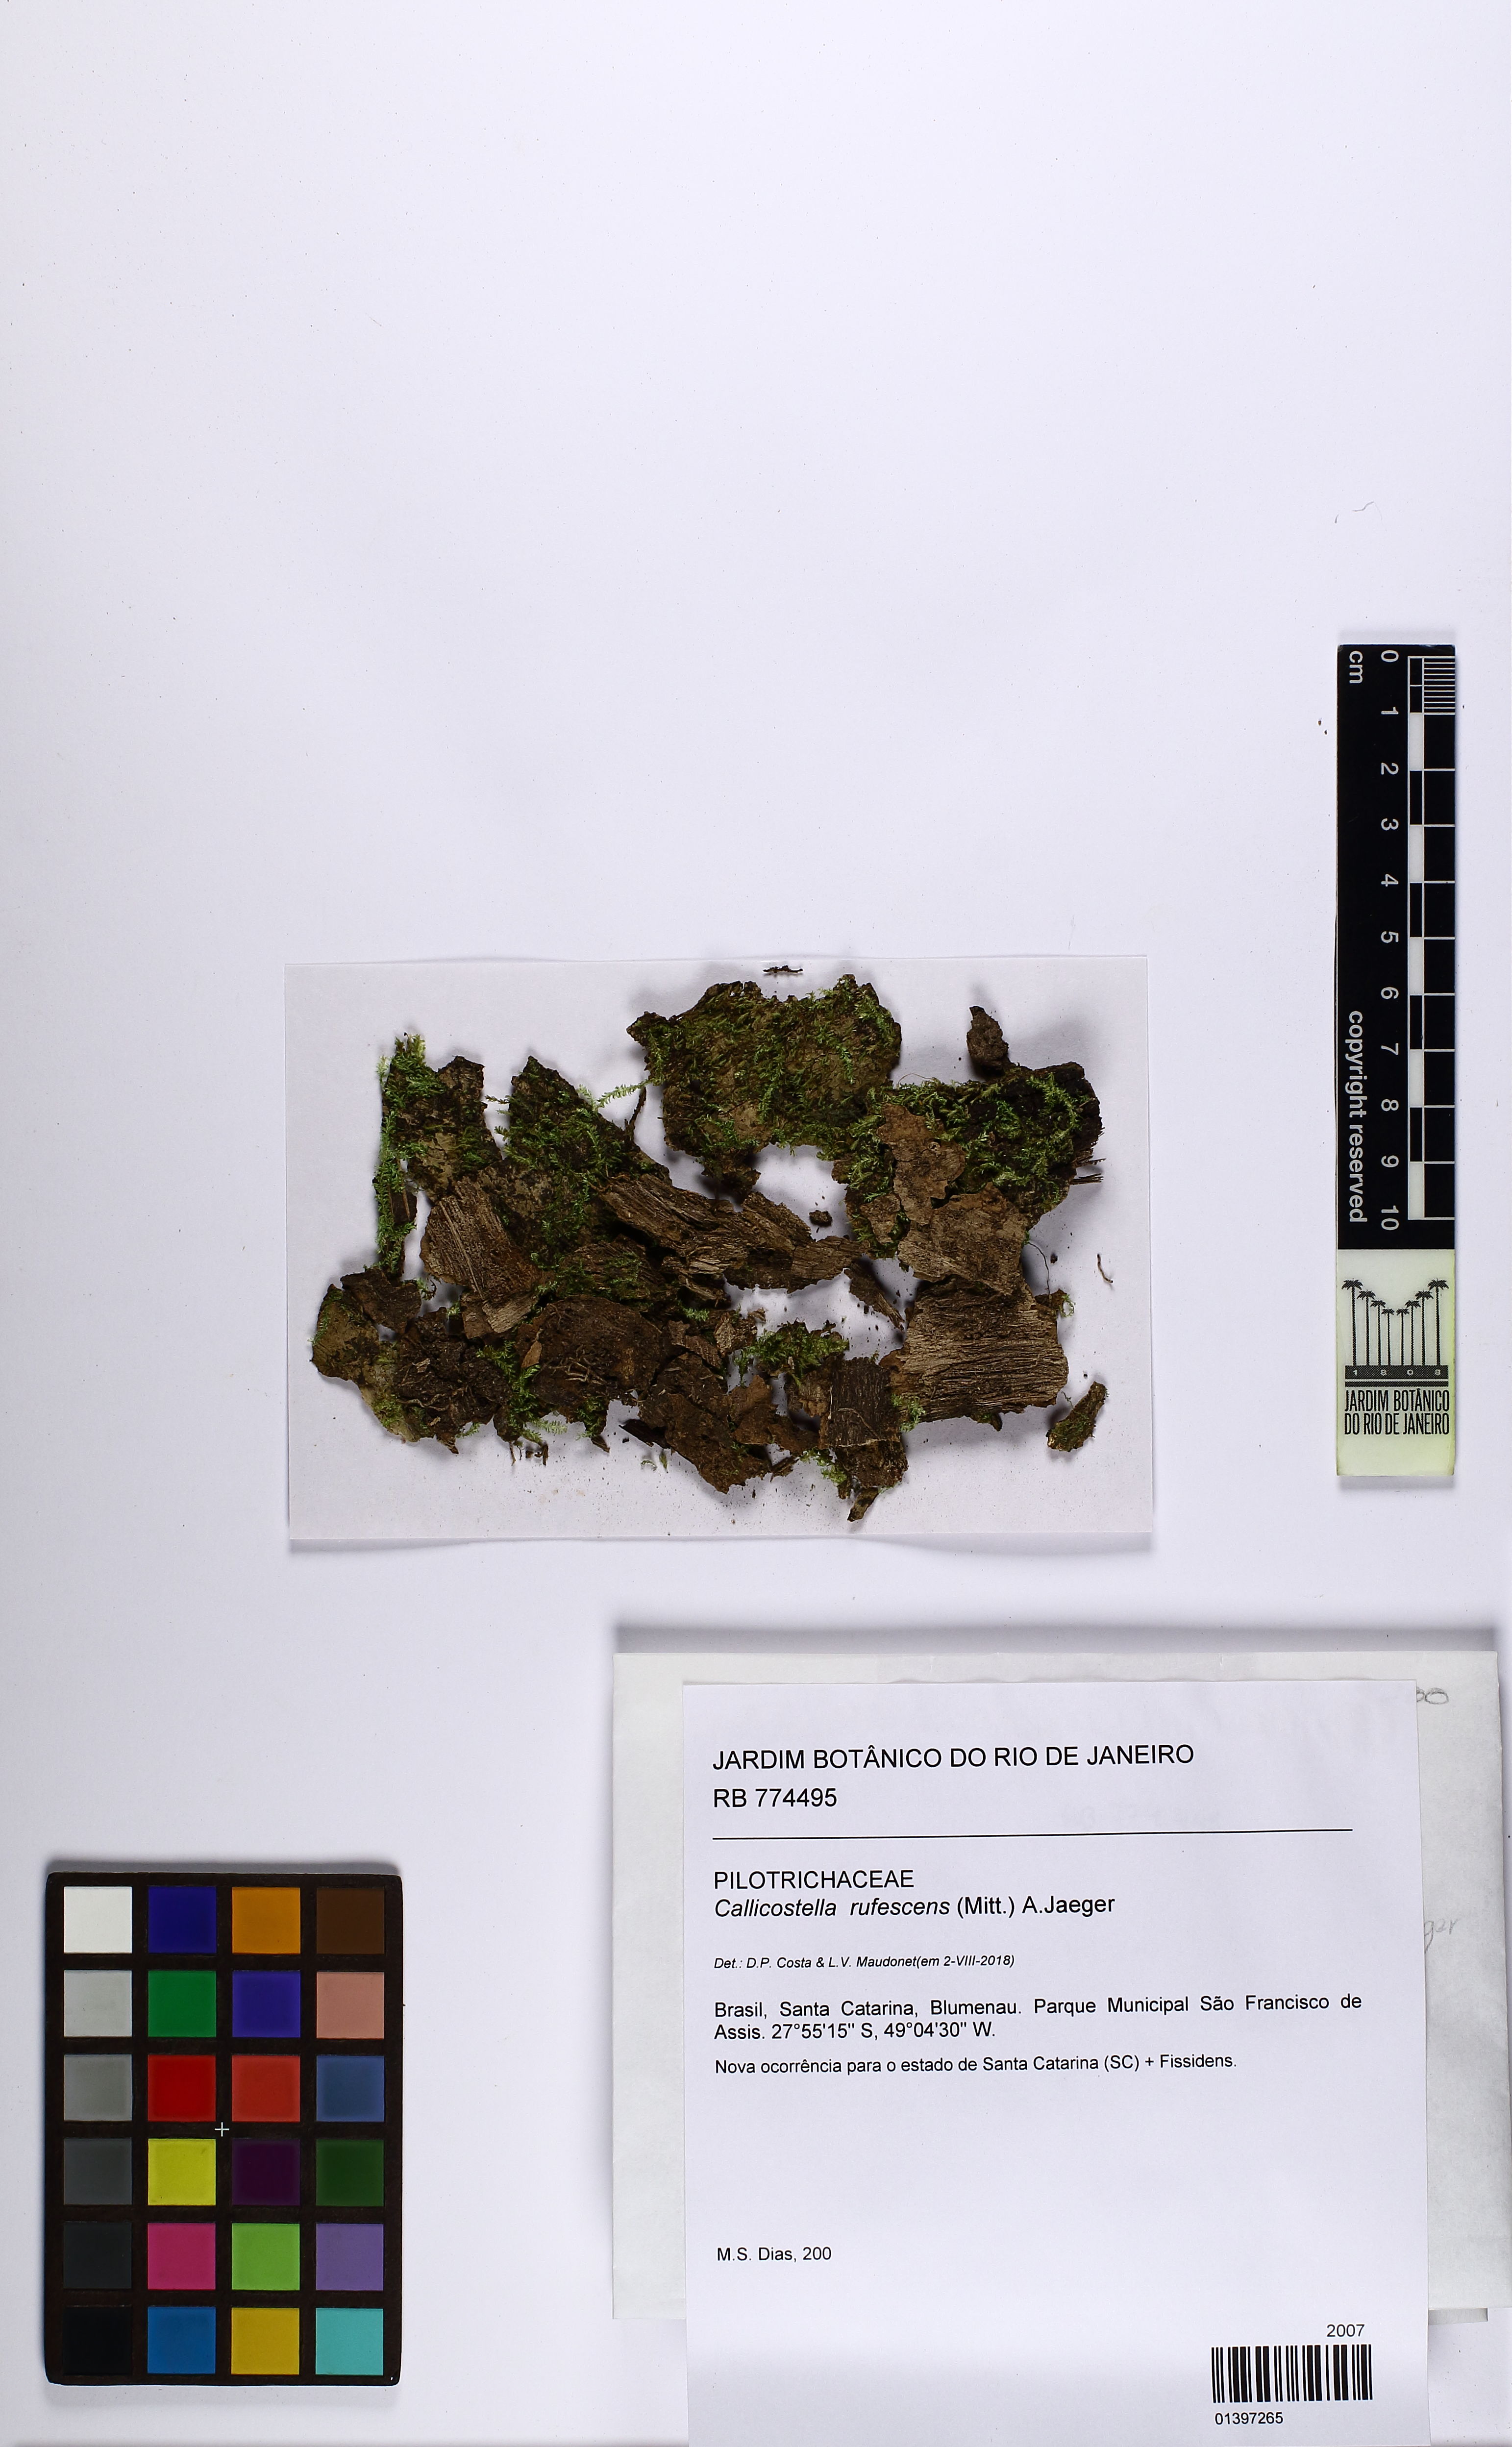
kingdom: Plantae
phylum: Bryophyta
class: Bryopsida
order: Hookeriales
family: Pilotrichaceae
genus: Callicostella
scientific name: Callicostella rufescens
